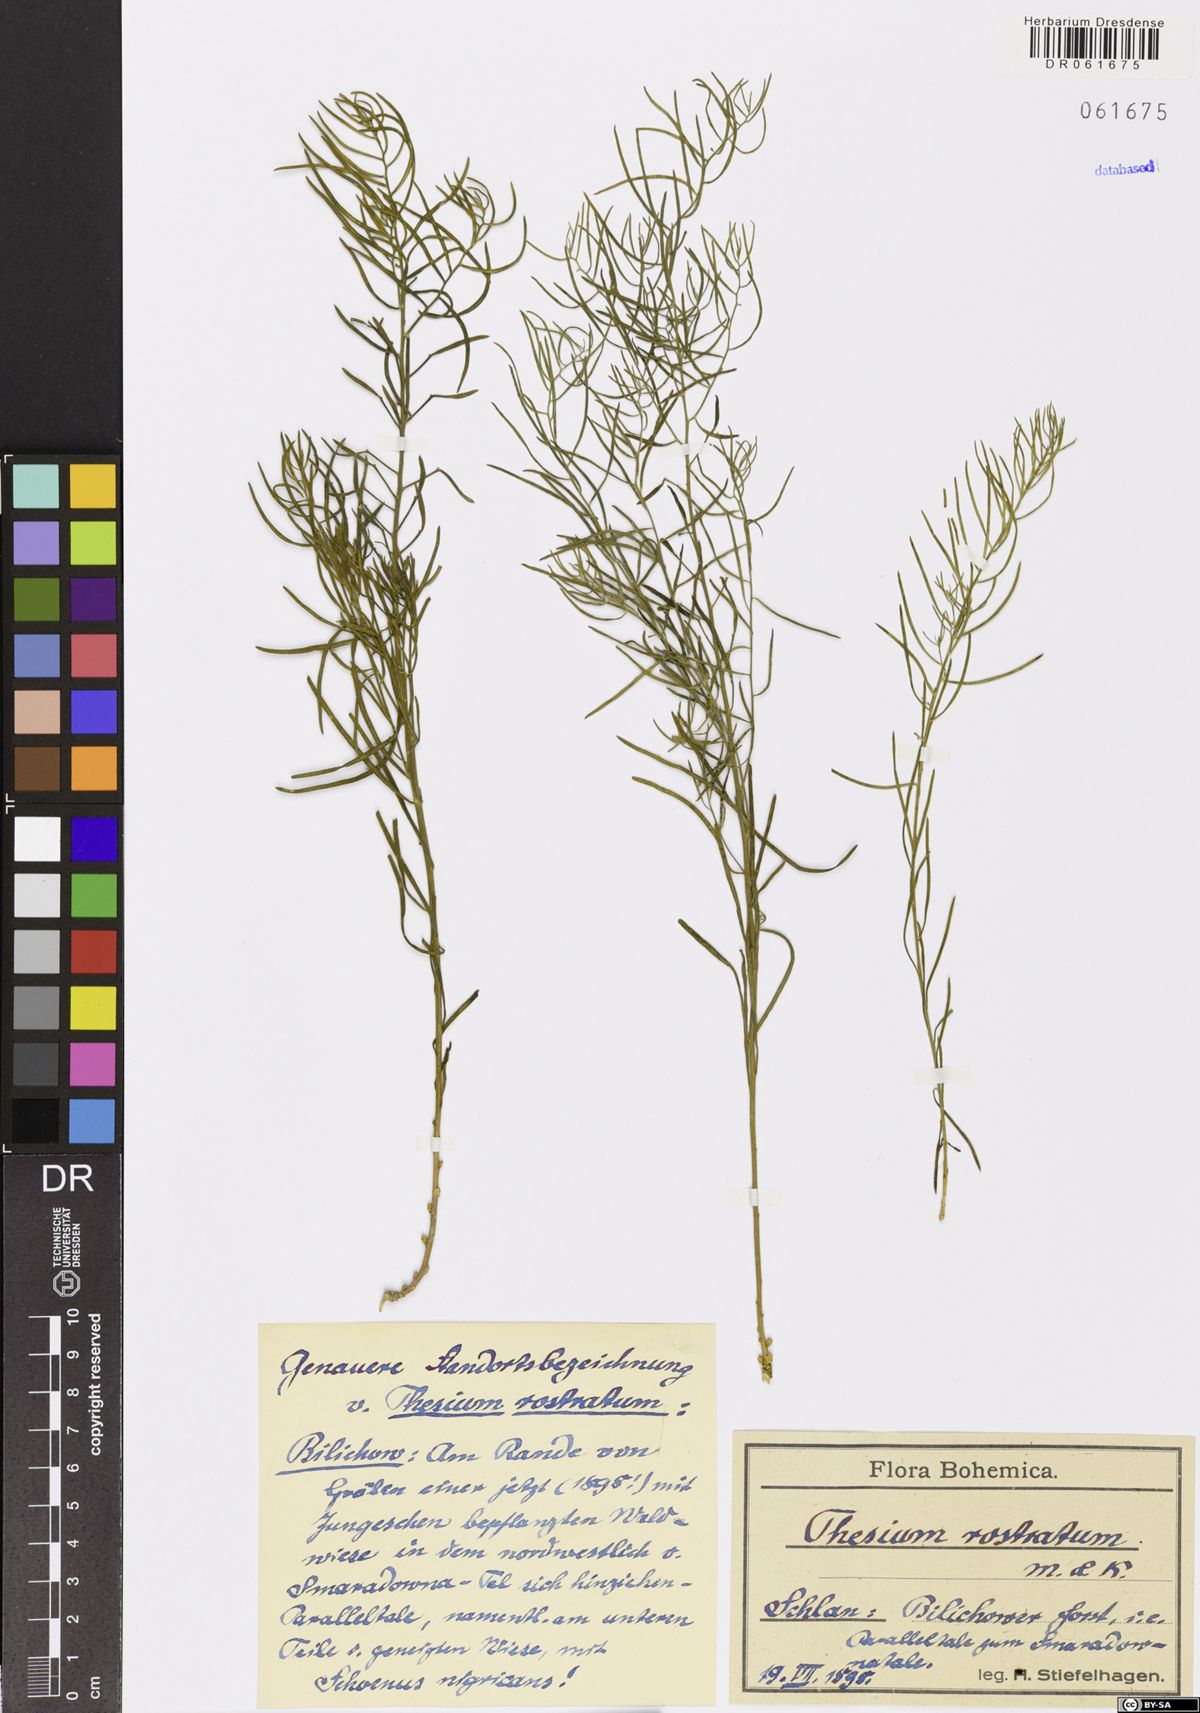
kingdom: Plantae
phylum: Tracheophyta
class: Magnoliopsida
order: Santalales
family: Thesiaceae
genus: Thesium
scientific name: Thesium rostratum
